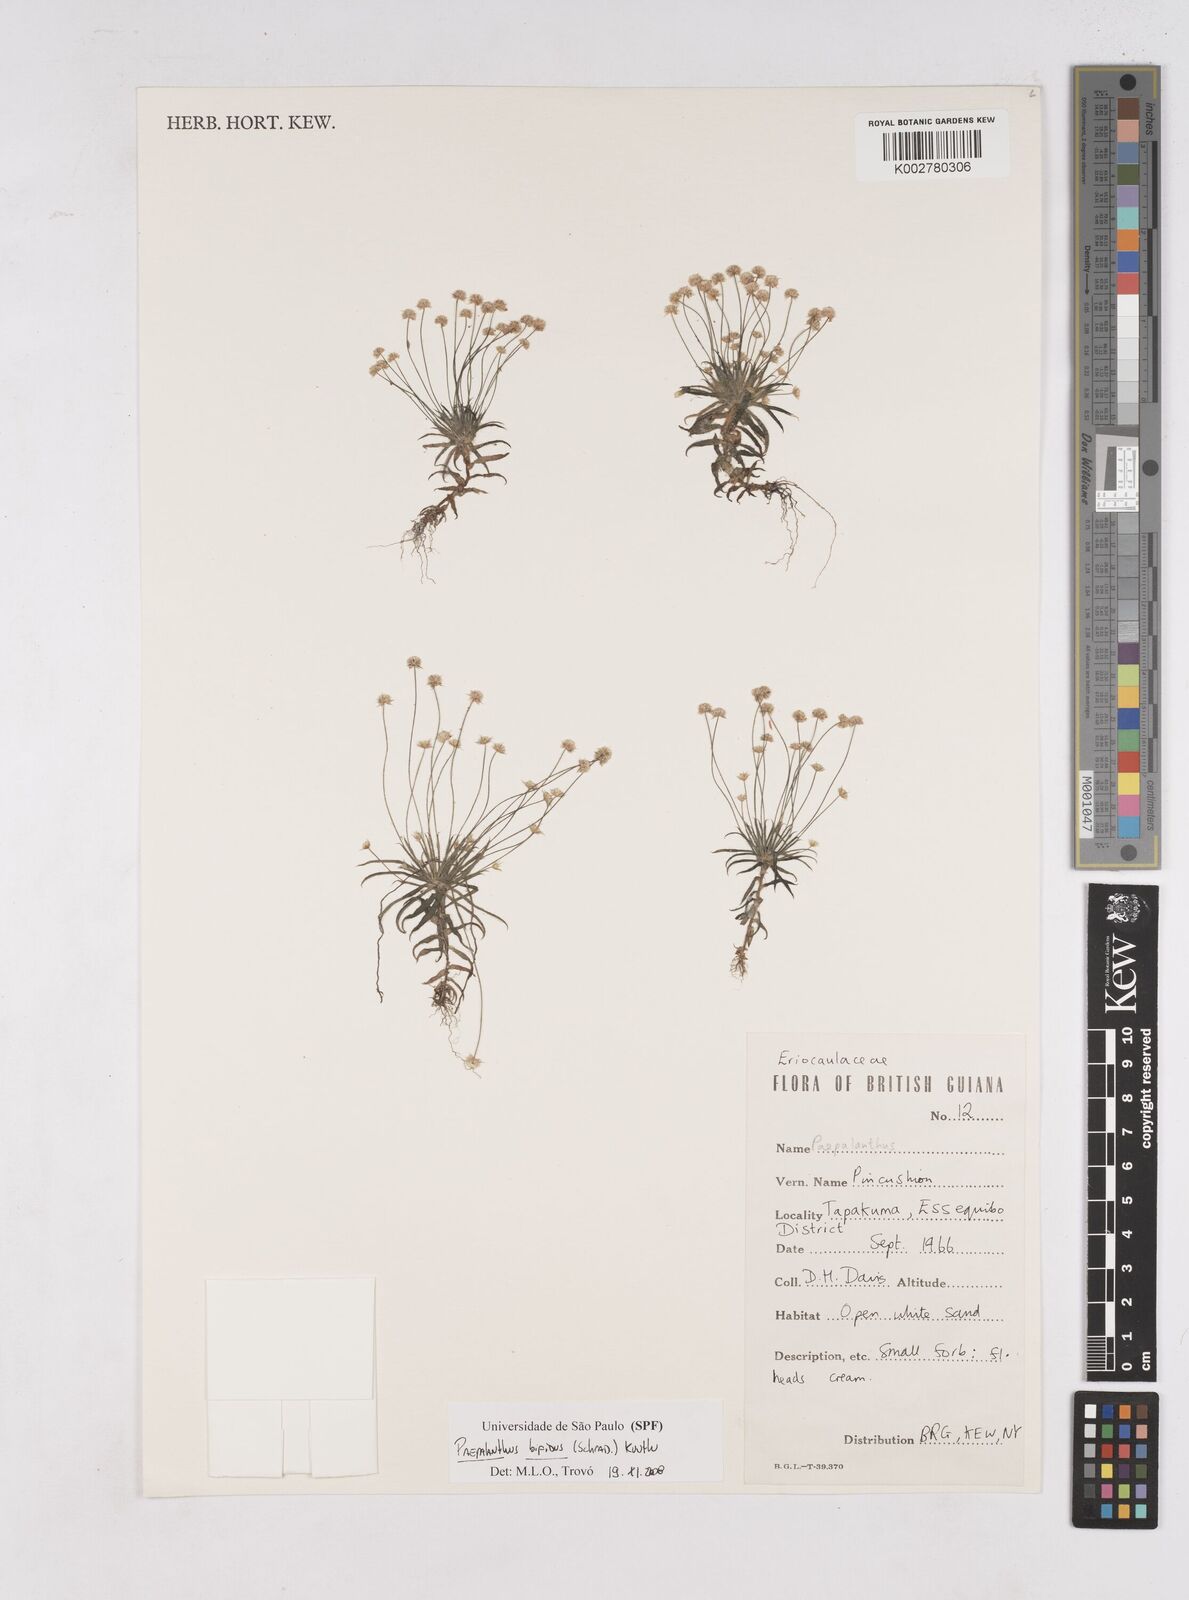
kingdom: Plantae
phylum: Tracheophyta
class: Liliopsida
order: Poales
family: Eriocaulaceae
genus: Paepalanthus
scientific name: Paepalanthus bifidus
